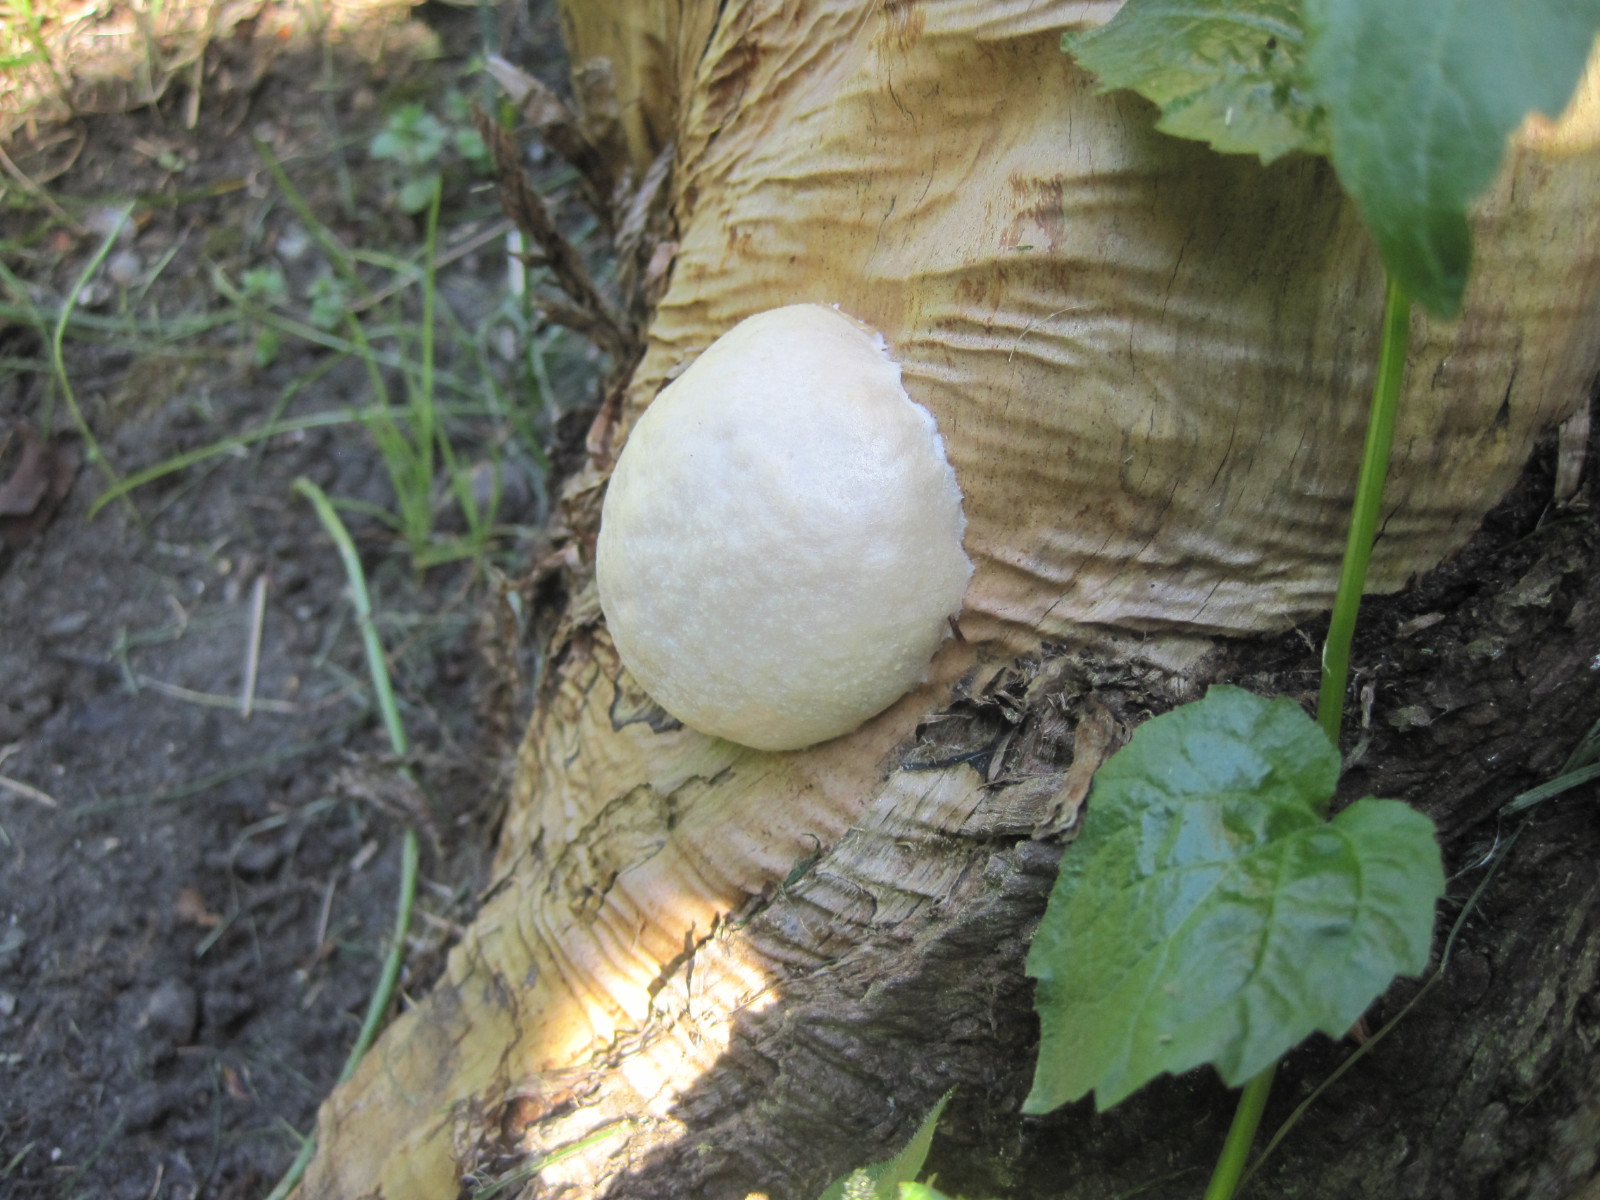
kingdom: Protozoa
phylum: Mycetozoa
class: Myxomycetes
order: Cribrariales
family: Tubiferaceae
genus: Reticularia
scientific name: Reticularia lycoperdon
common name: skinnende støvpude
